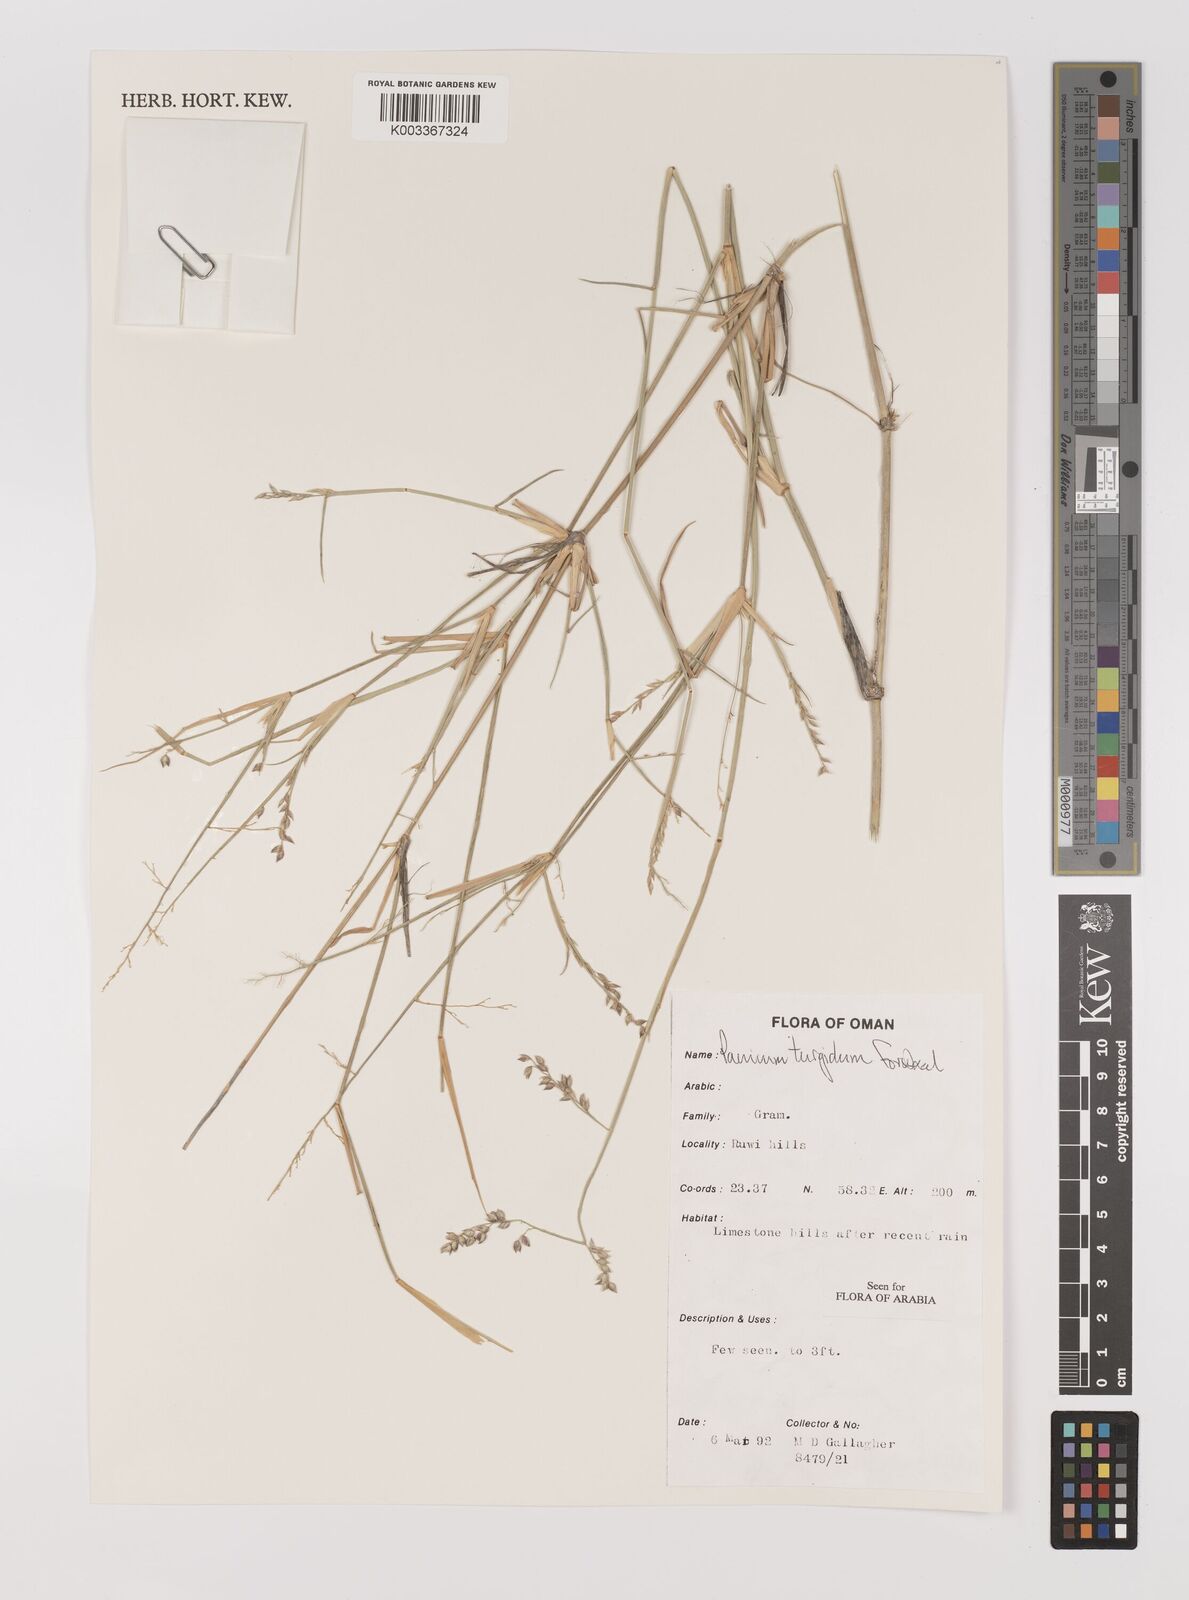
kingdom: Plantae
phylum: Tracheophyta
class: Liliopsida
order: Poales
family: Poaceae
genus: Panicum
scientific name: Panicum turgidum
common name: Desert grass
